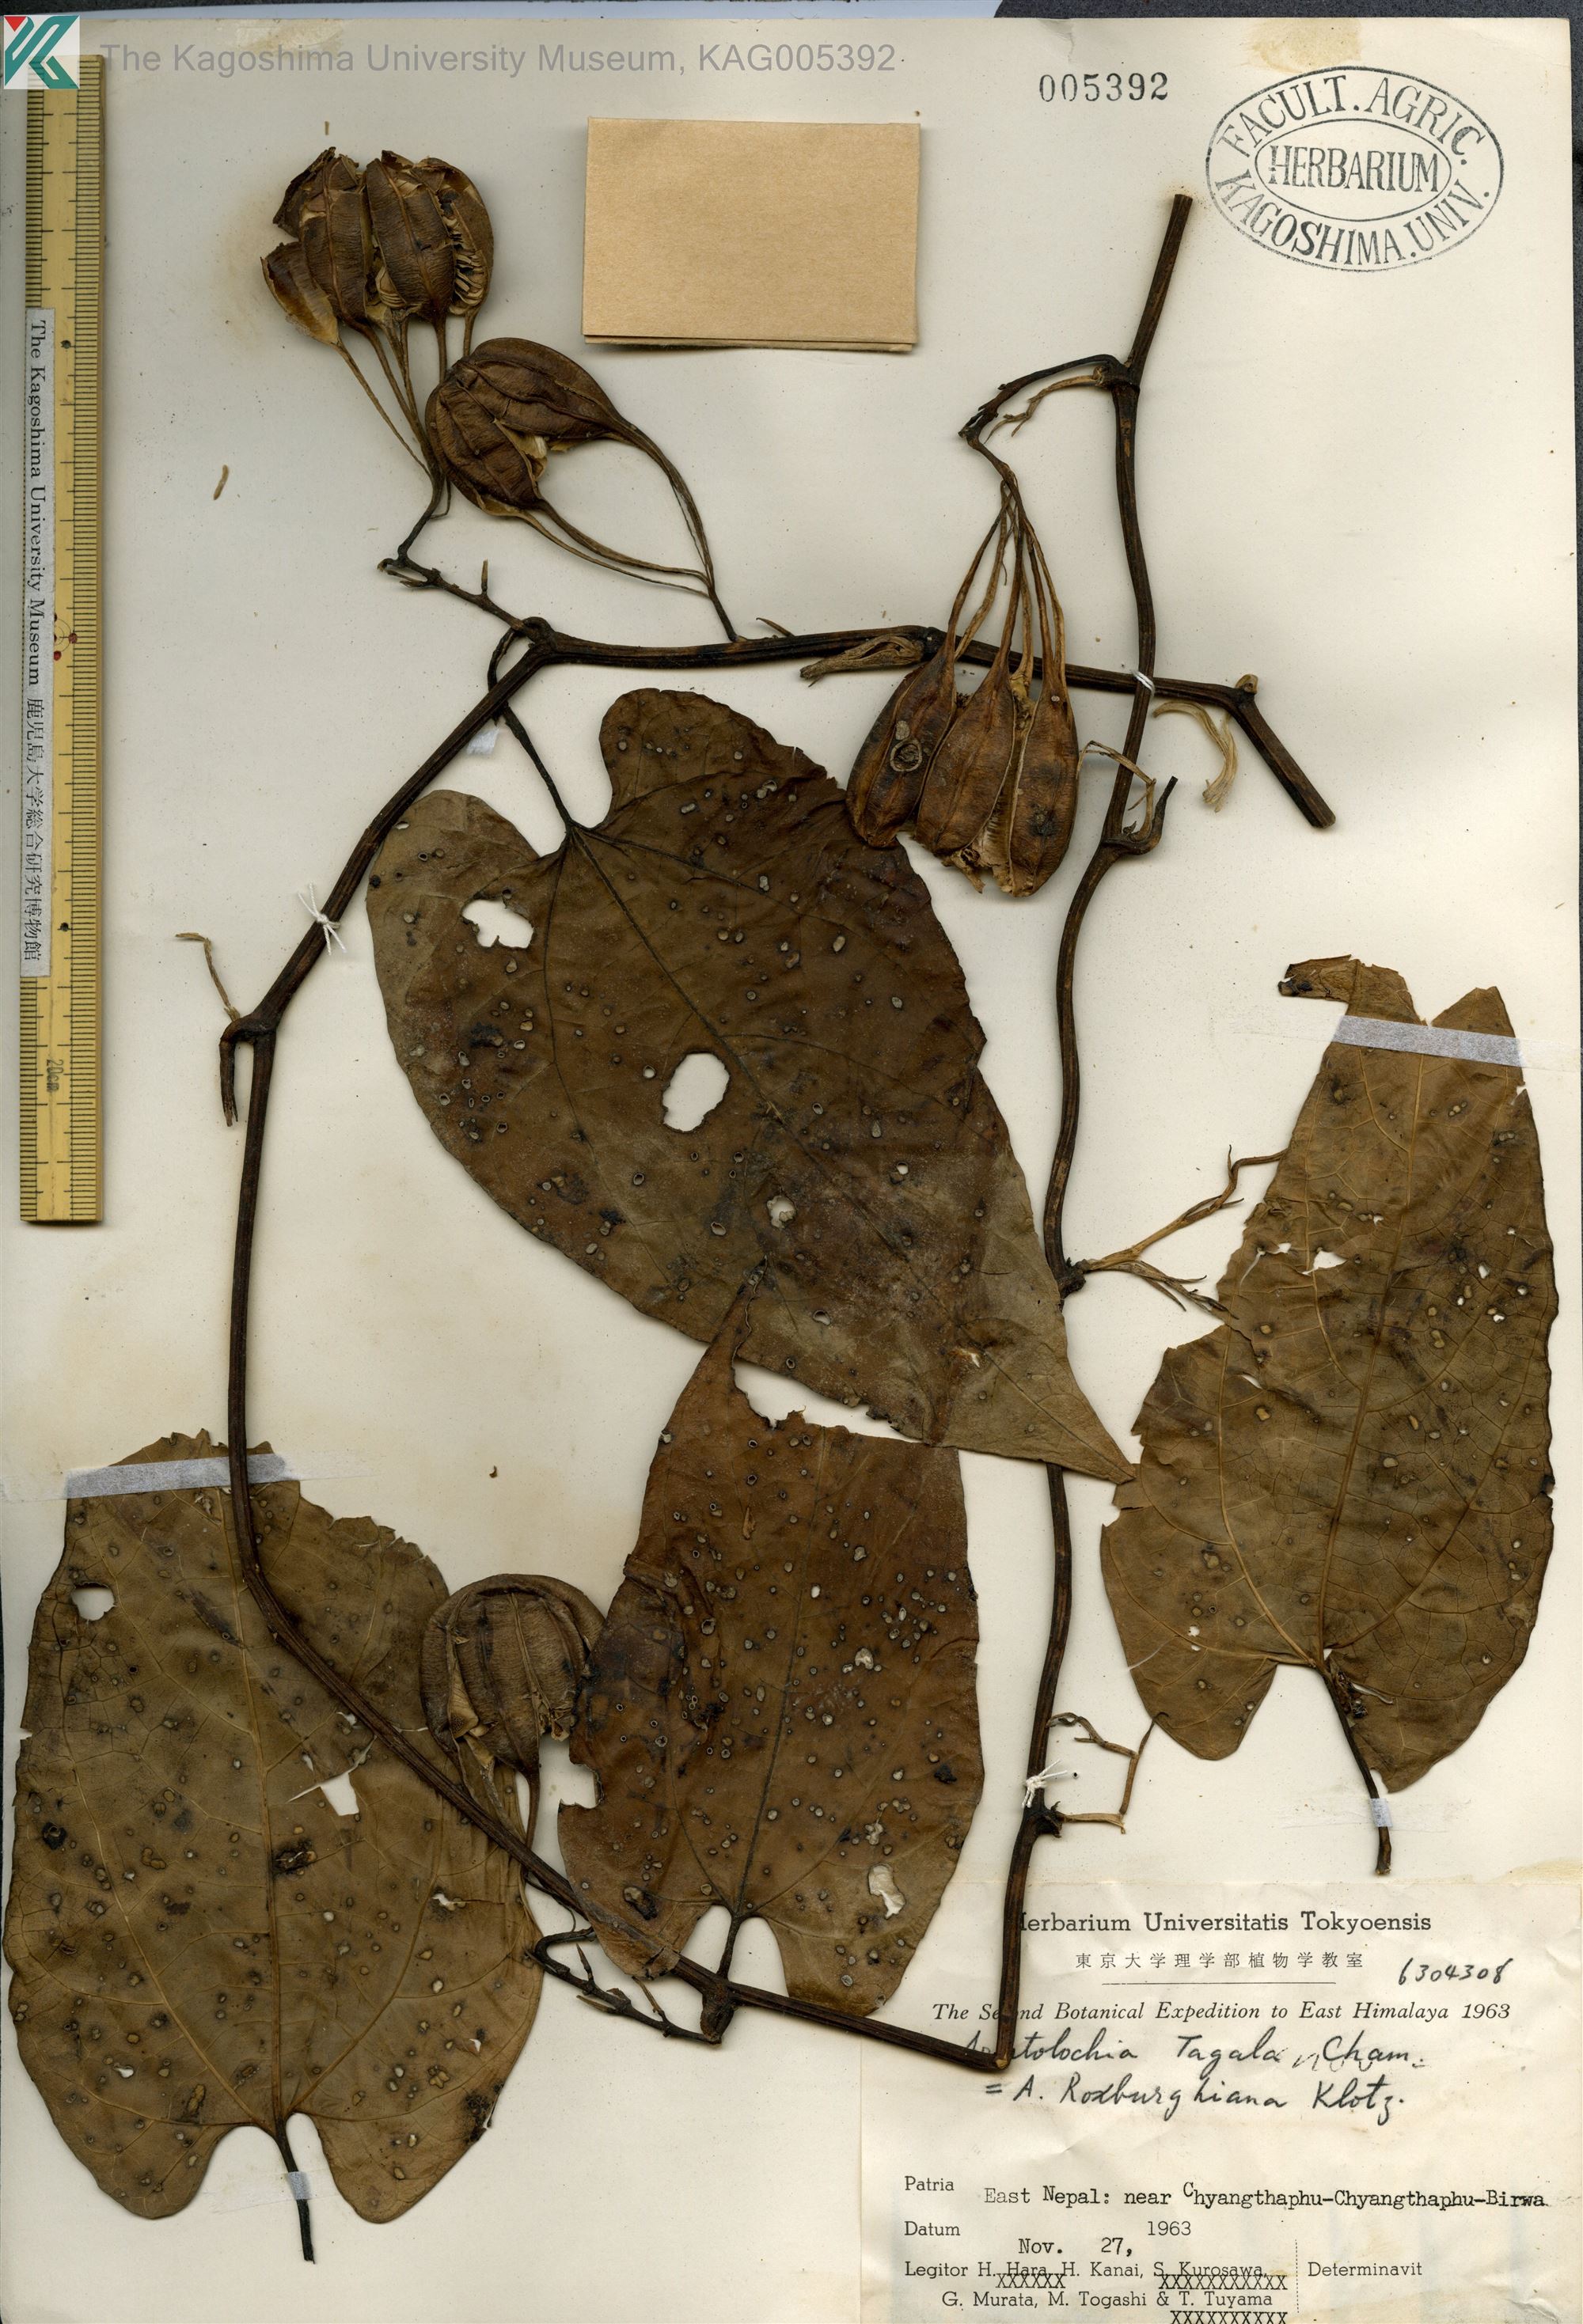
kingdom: Plantae
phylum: Tracheophyta
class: Magnoliopsida
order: Piperales
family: Aristolochiaceae
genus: Aristolochia
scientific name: Aristolochia acuminata
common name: Indian birthwort
